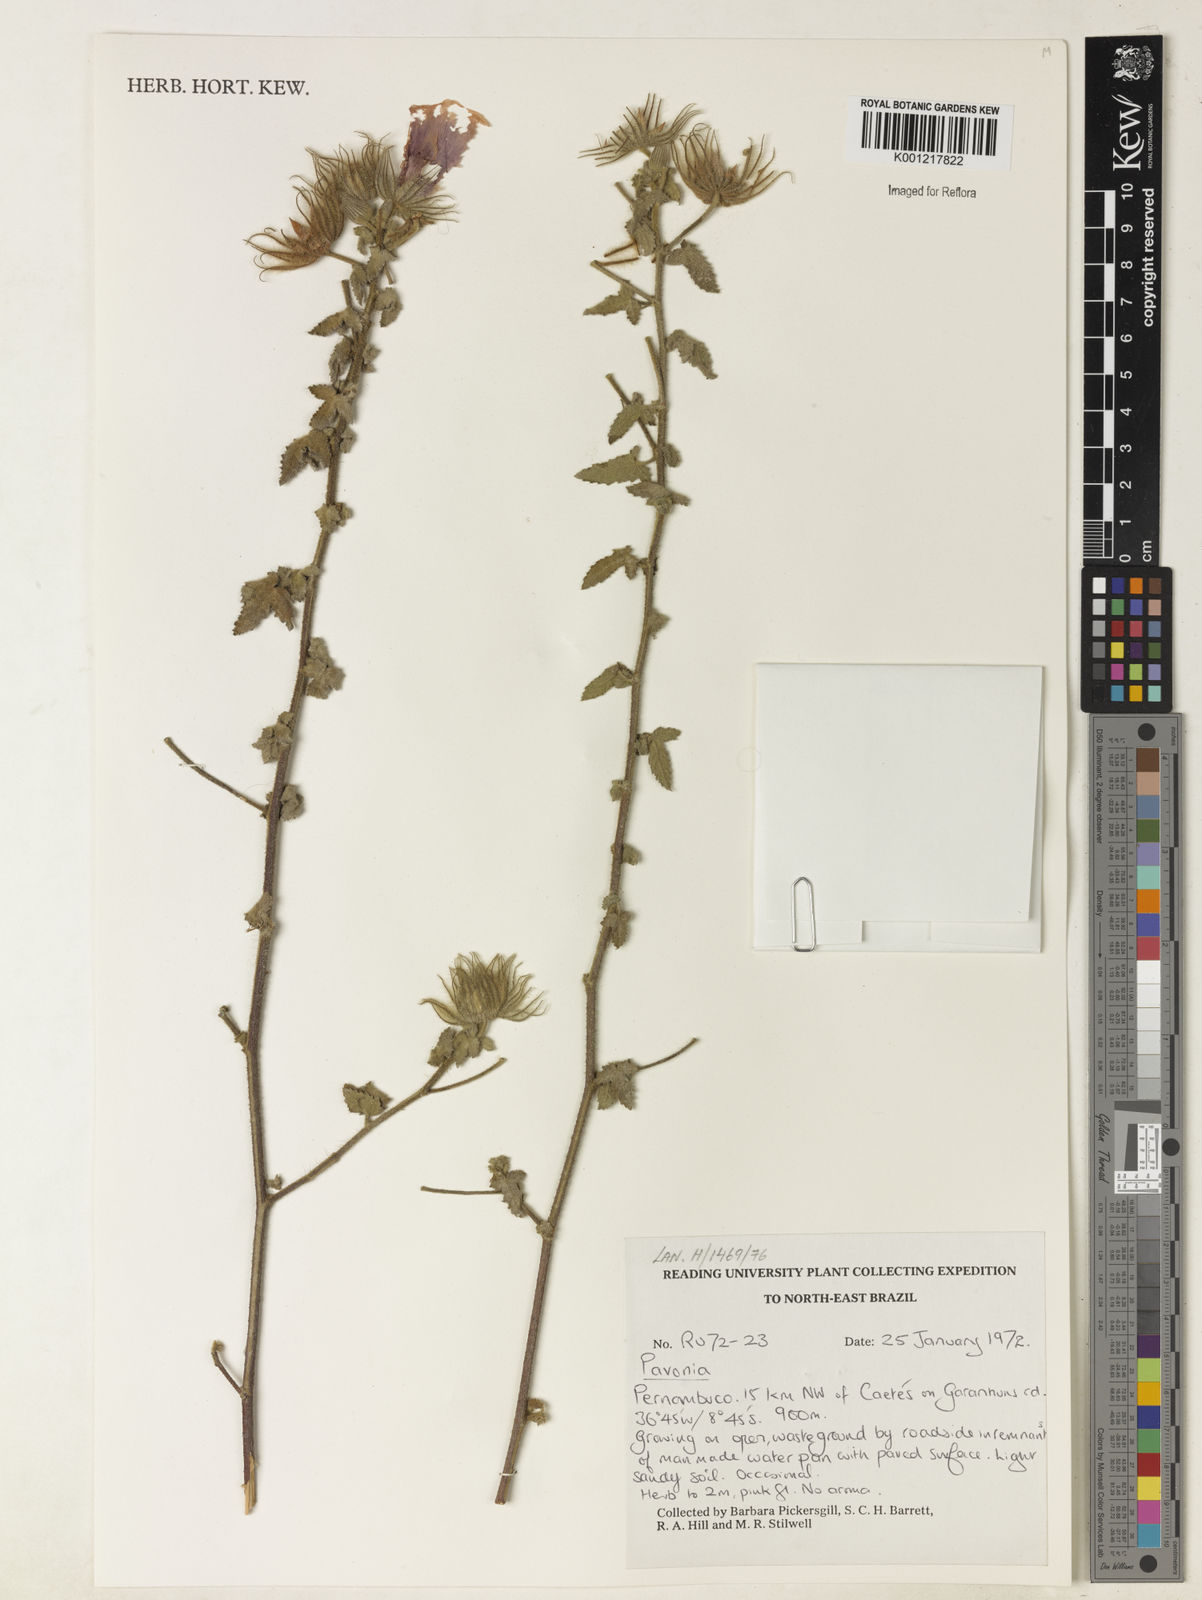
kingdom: Plantae
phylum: Tracheophyta
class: Magnoliopsida
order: Malvales
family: Malvaceae
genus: Pavonia
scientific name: Pavonia
